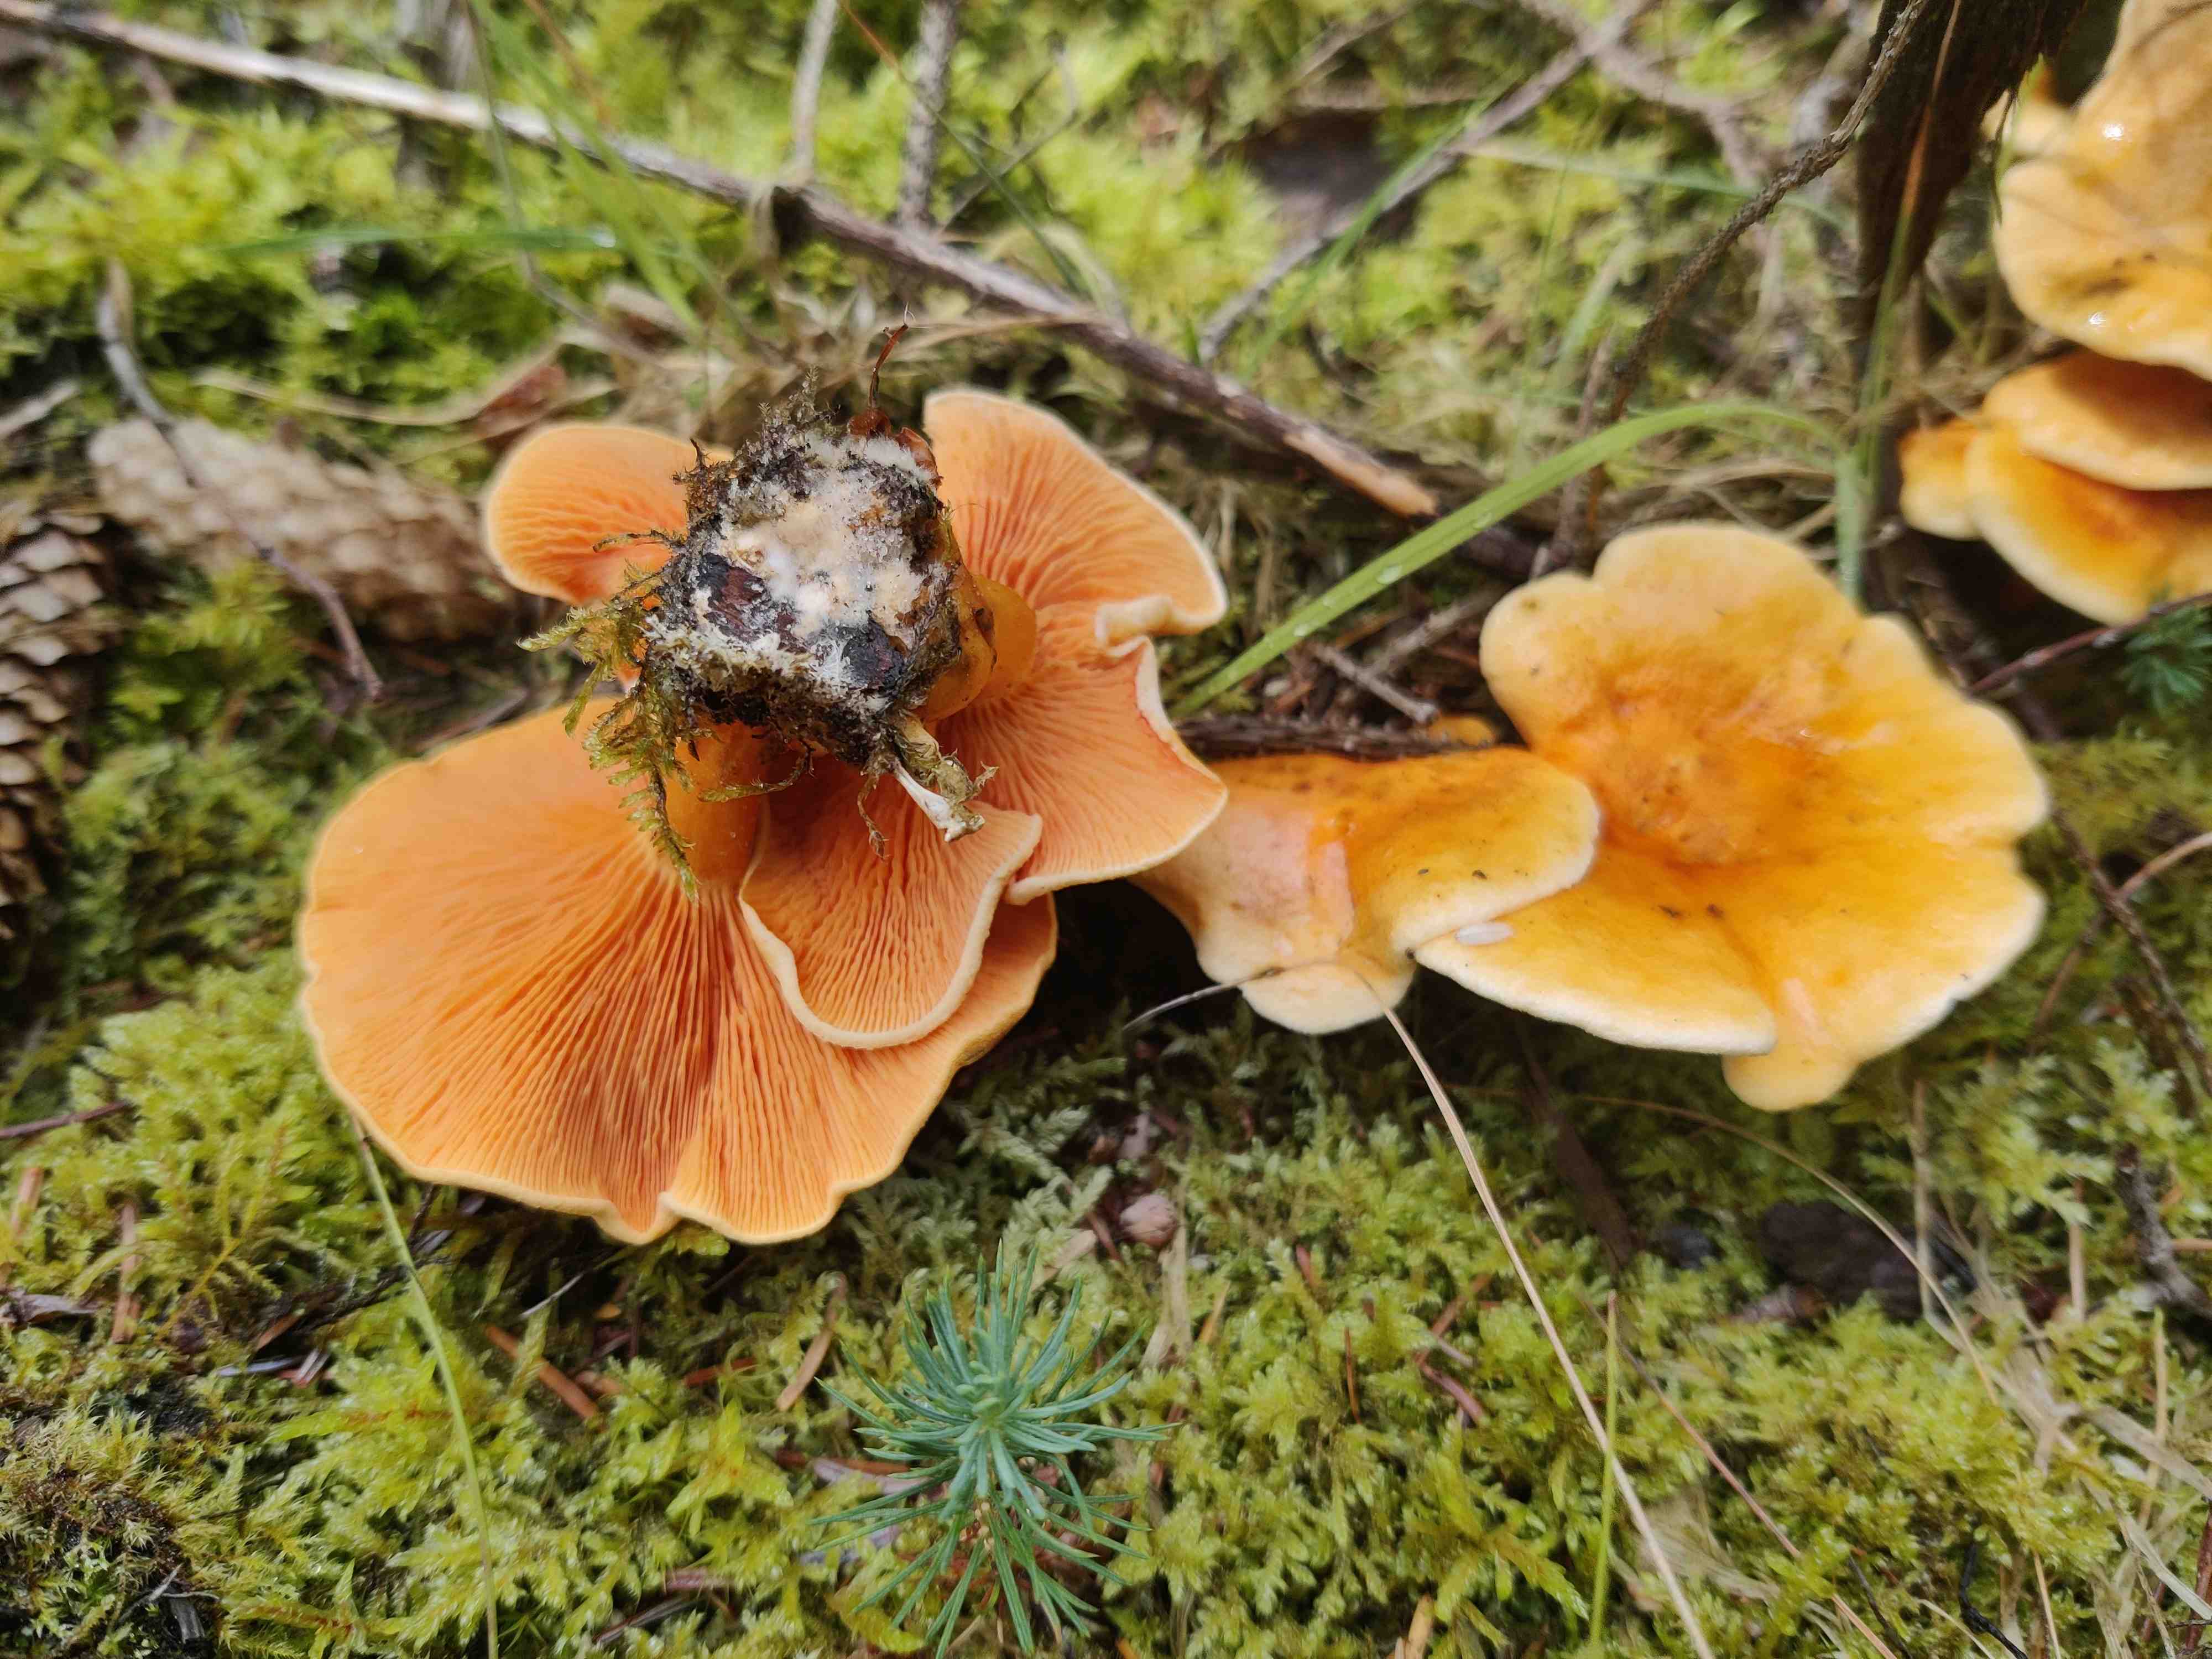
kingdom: Fungi
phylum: Basidiomycota
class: Agaricomycetes
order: Boletales
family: Hygrophoropsidaceae
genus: Hygrophoropsis
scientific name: Hygrophoropsis aurantiaca
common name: almindelig orangekantarel
